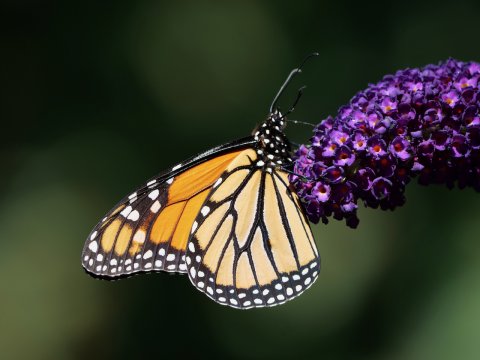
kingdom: Animalia
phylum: Arthropoda
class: Insecta
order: Lepidoptera
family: Nymphalidae
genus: Danaus
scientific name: Danaus plexippus
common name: Monarch
